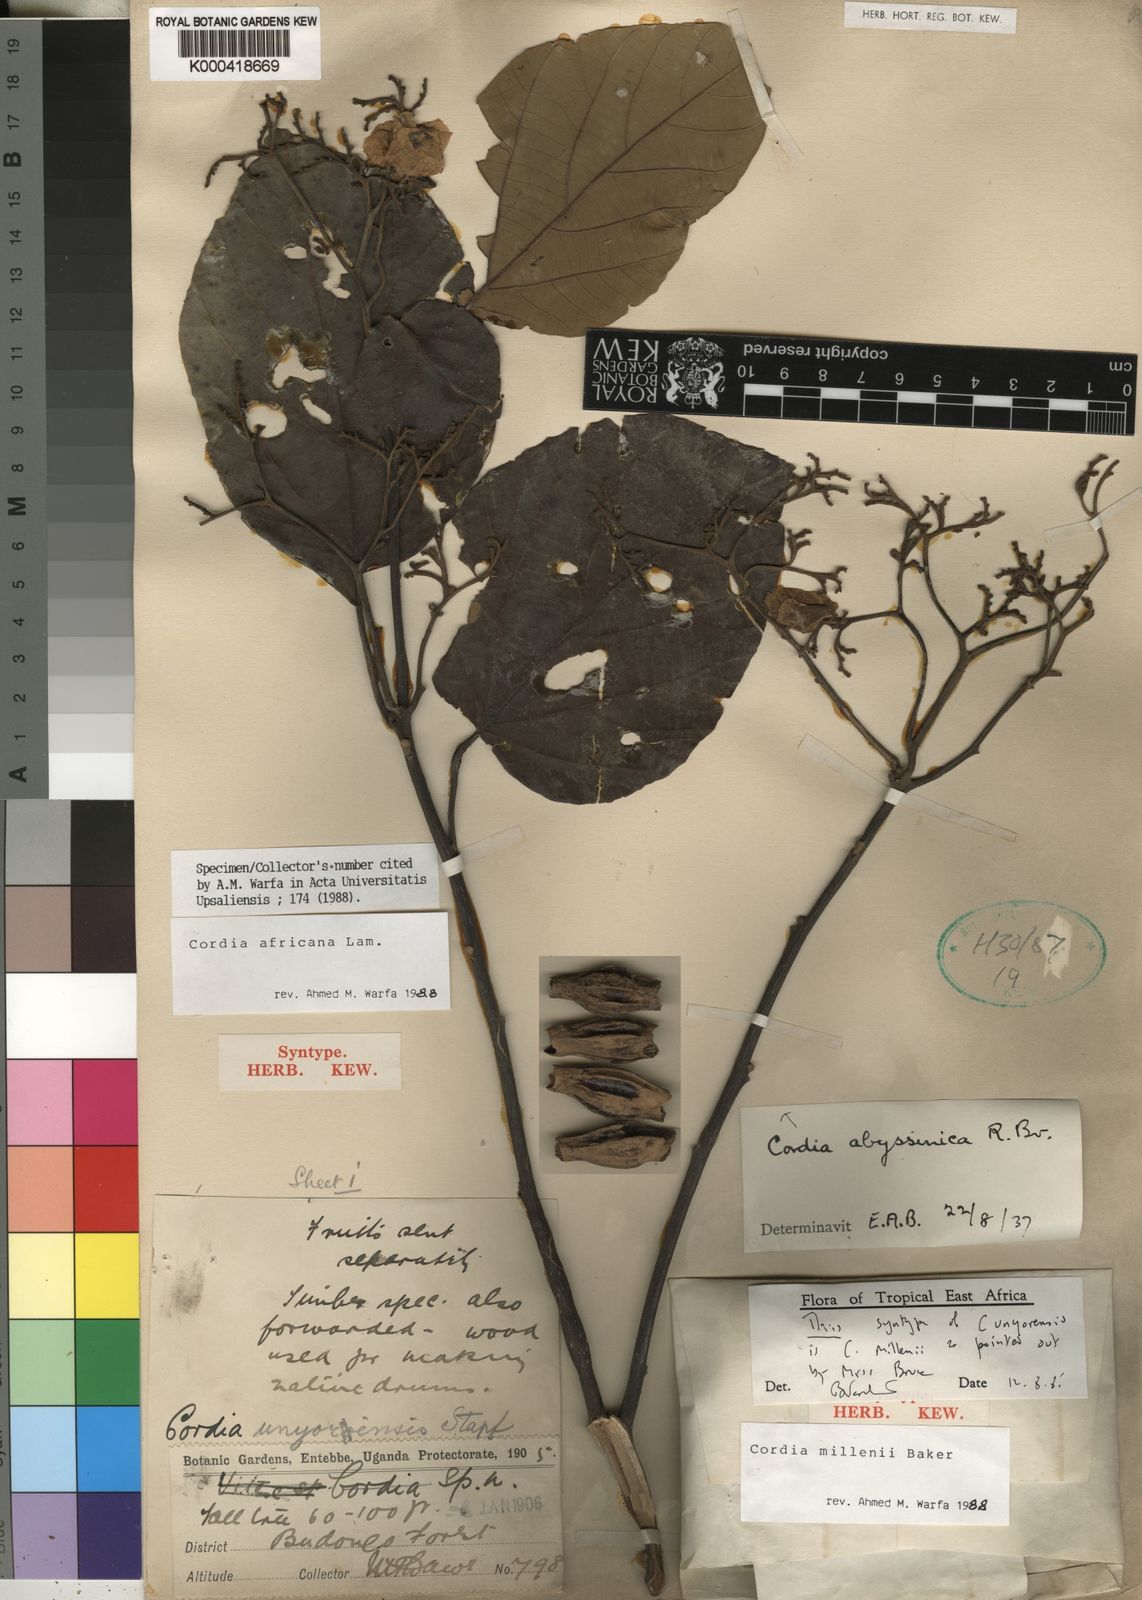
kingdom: Plantae
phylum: Tracheophyta
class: Magnoliopsida
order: Boraginales
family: Cordiaceae
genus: Cordia
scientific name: Cordia africana
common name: Large-leaved cordia
